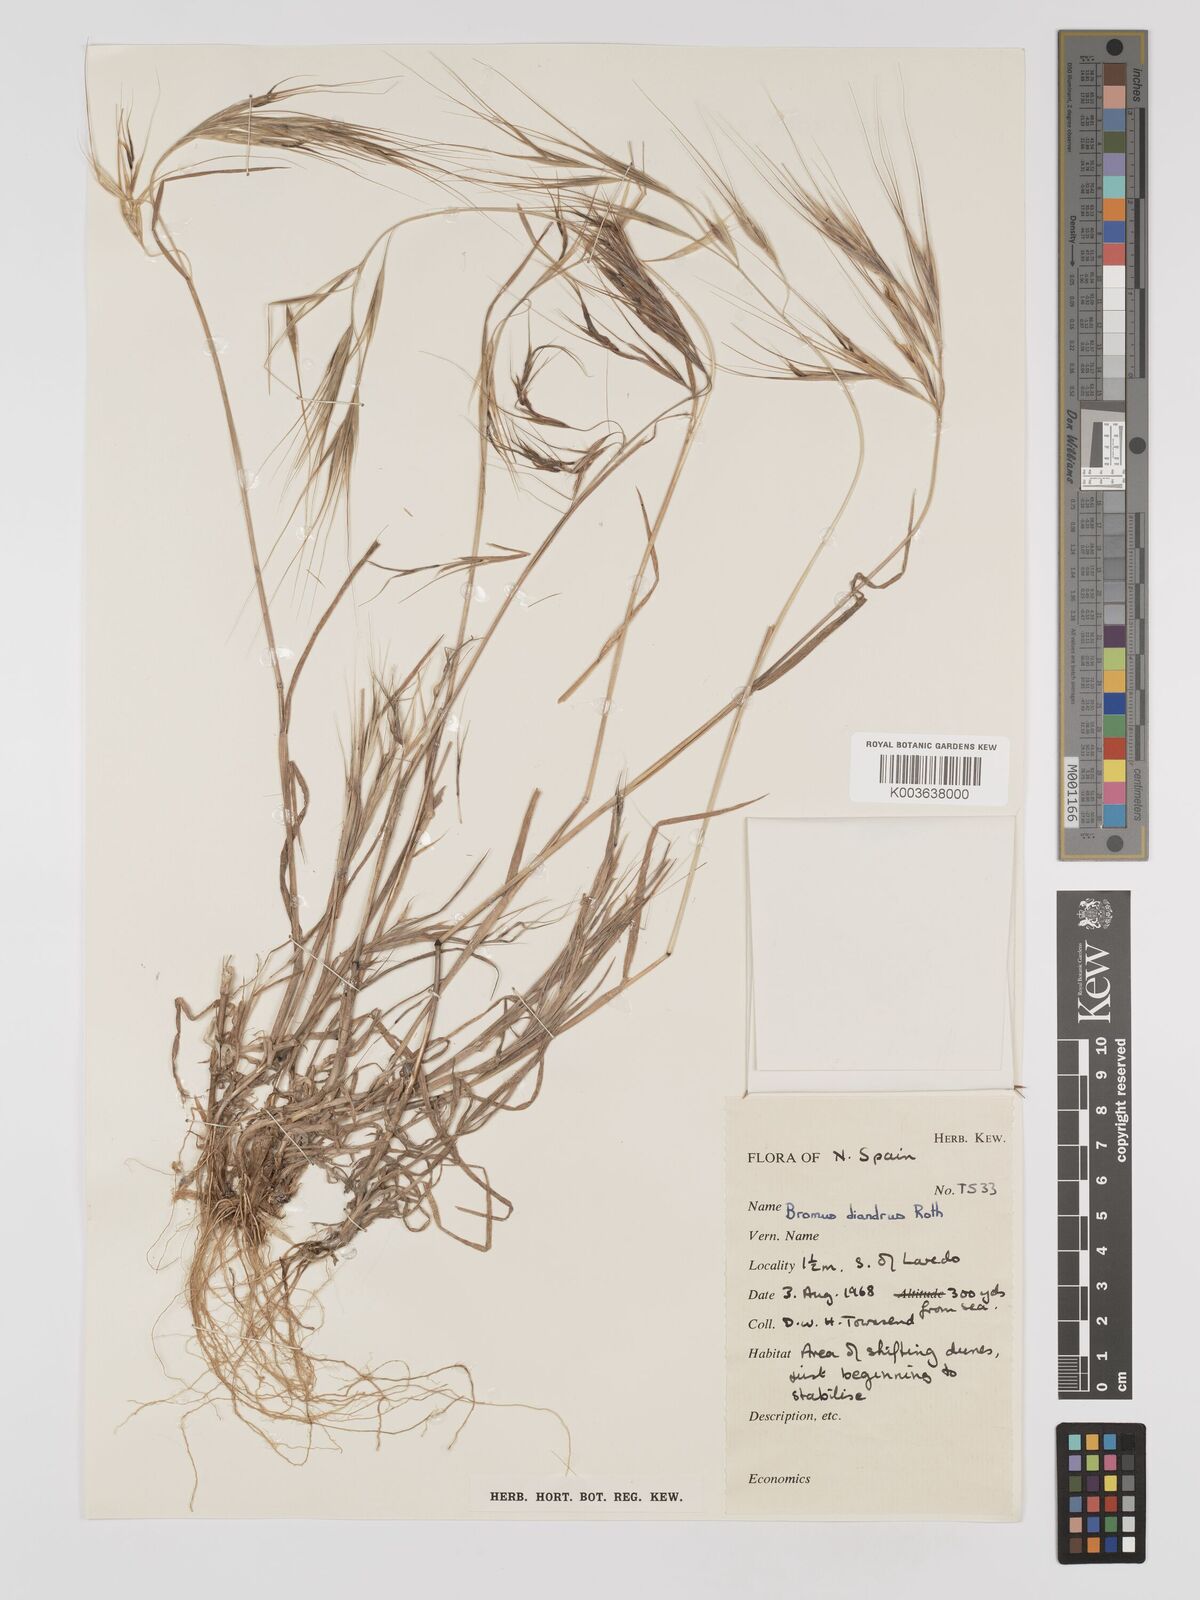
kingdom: Plantae
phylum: Tracheophyta
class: Liliopsida
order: Poales
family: Poaceae
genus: Bromus
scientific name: Bromus
